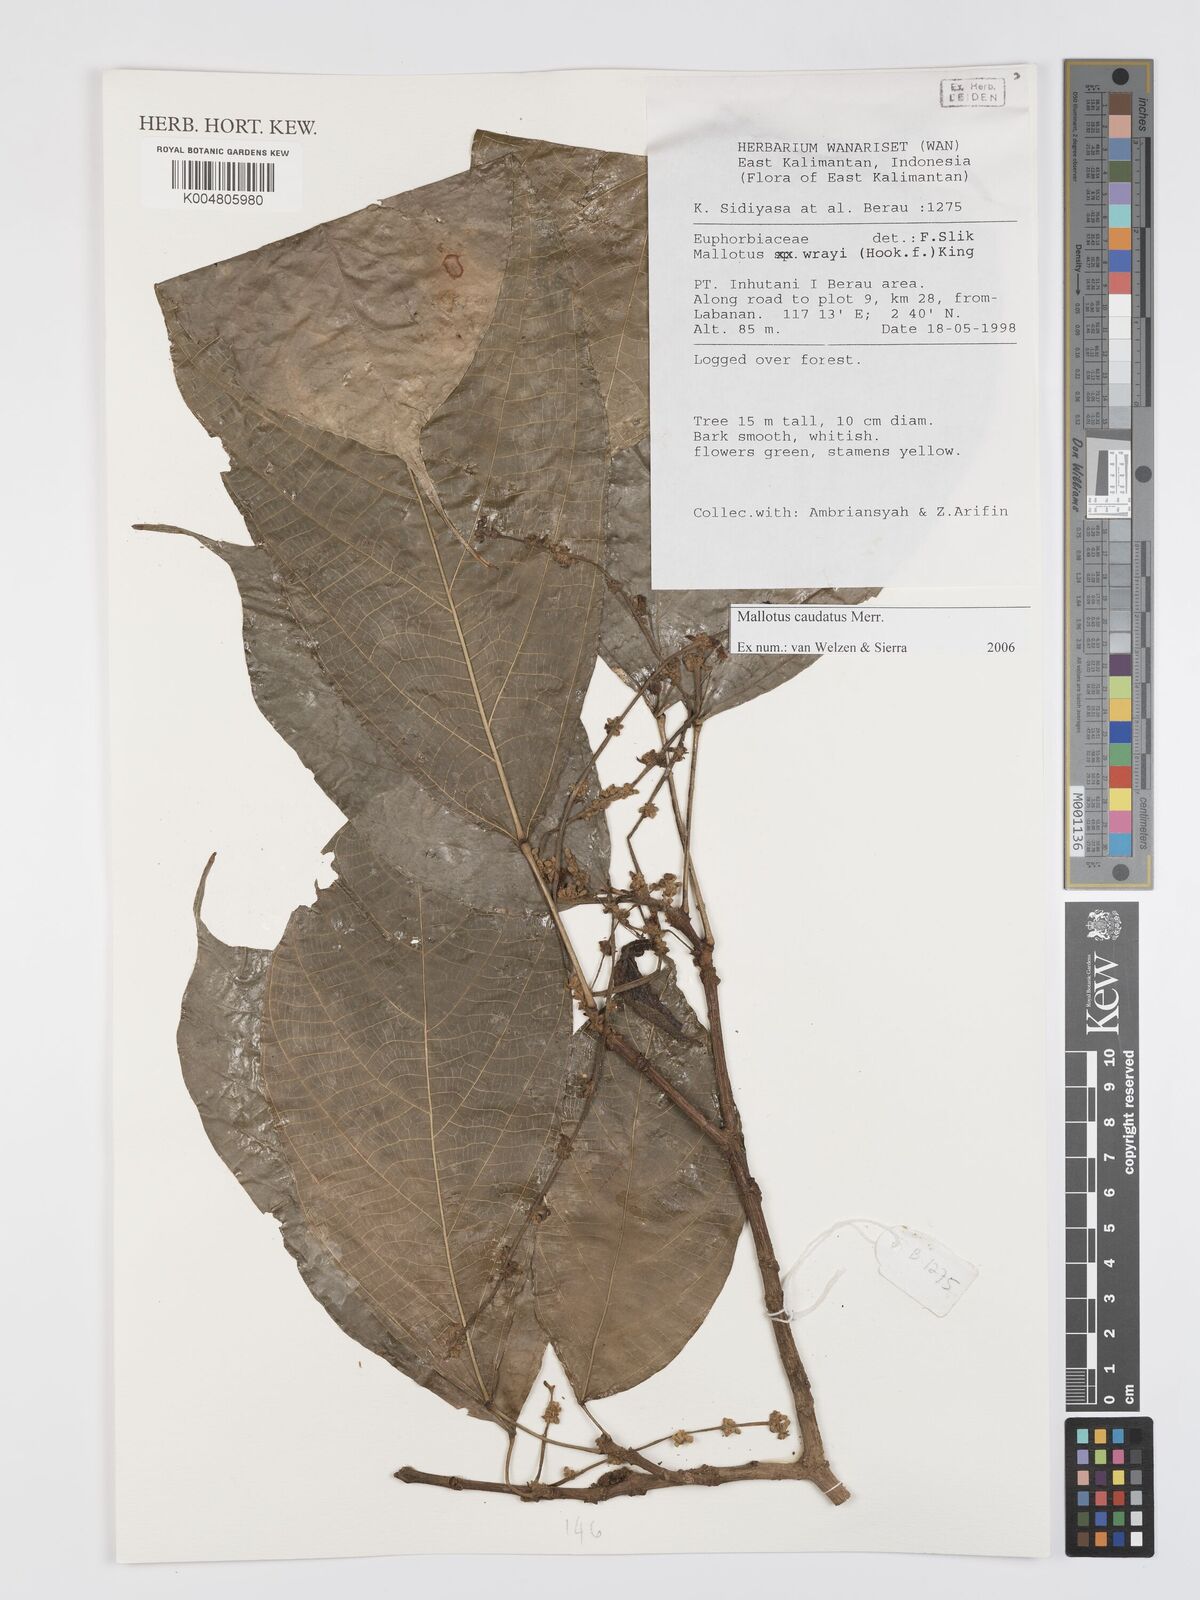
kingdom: Plantae
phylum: Tracheophyta
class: Magnoliopsida
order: Malpighiales
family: Euphorbiaceae
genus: Mallotus
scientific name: Mallotus caudatus
